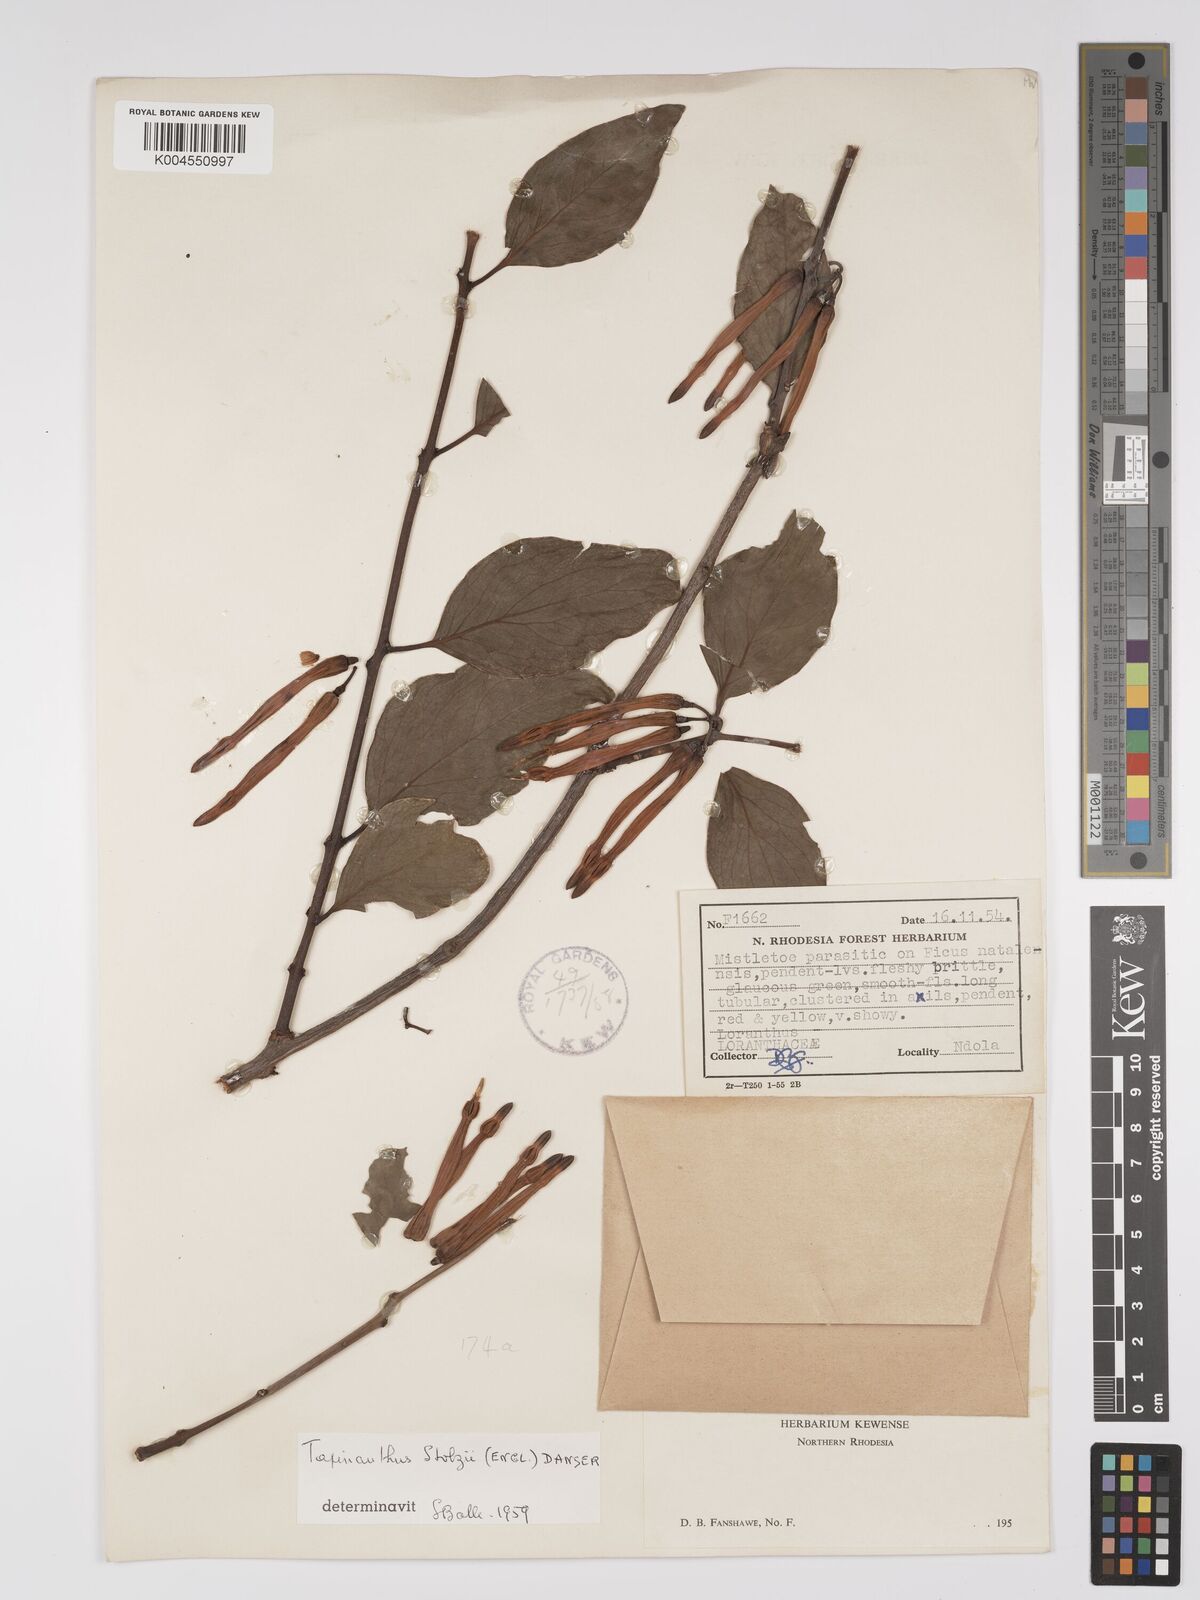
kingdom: Plantae
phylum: Tracheophyta
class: Magnoliopsida
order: Santalales
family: Loranthaceae
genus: Agelanthus
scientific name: Agelanthus nyasicus
